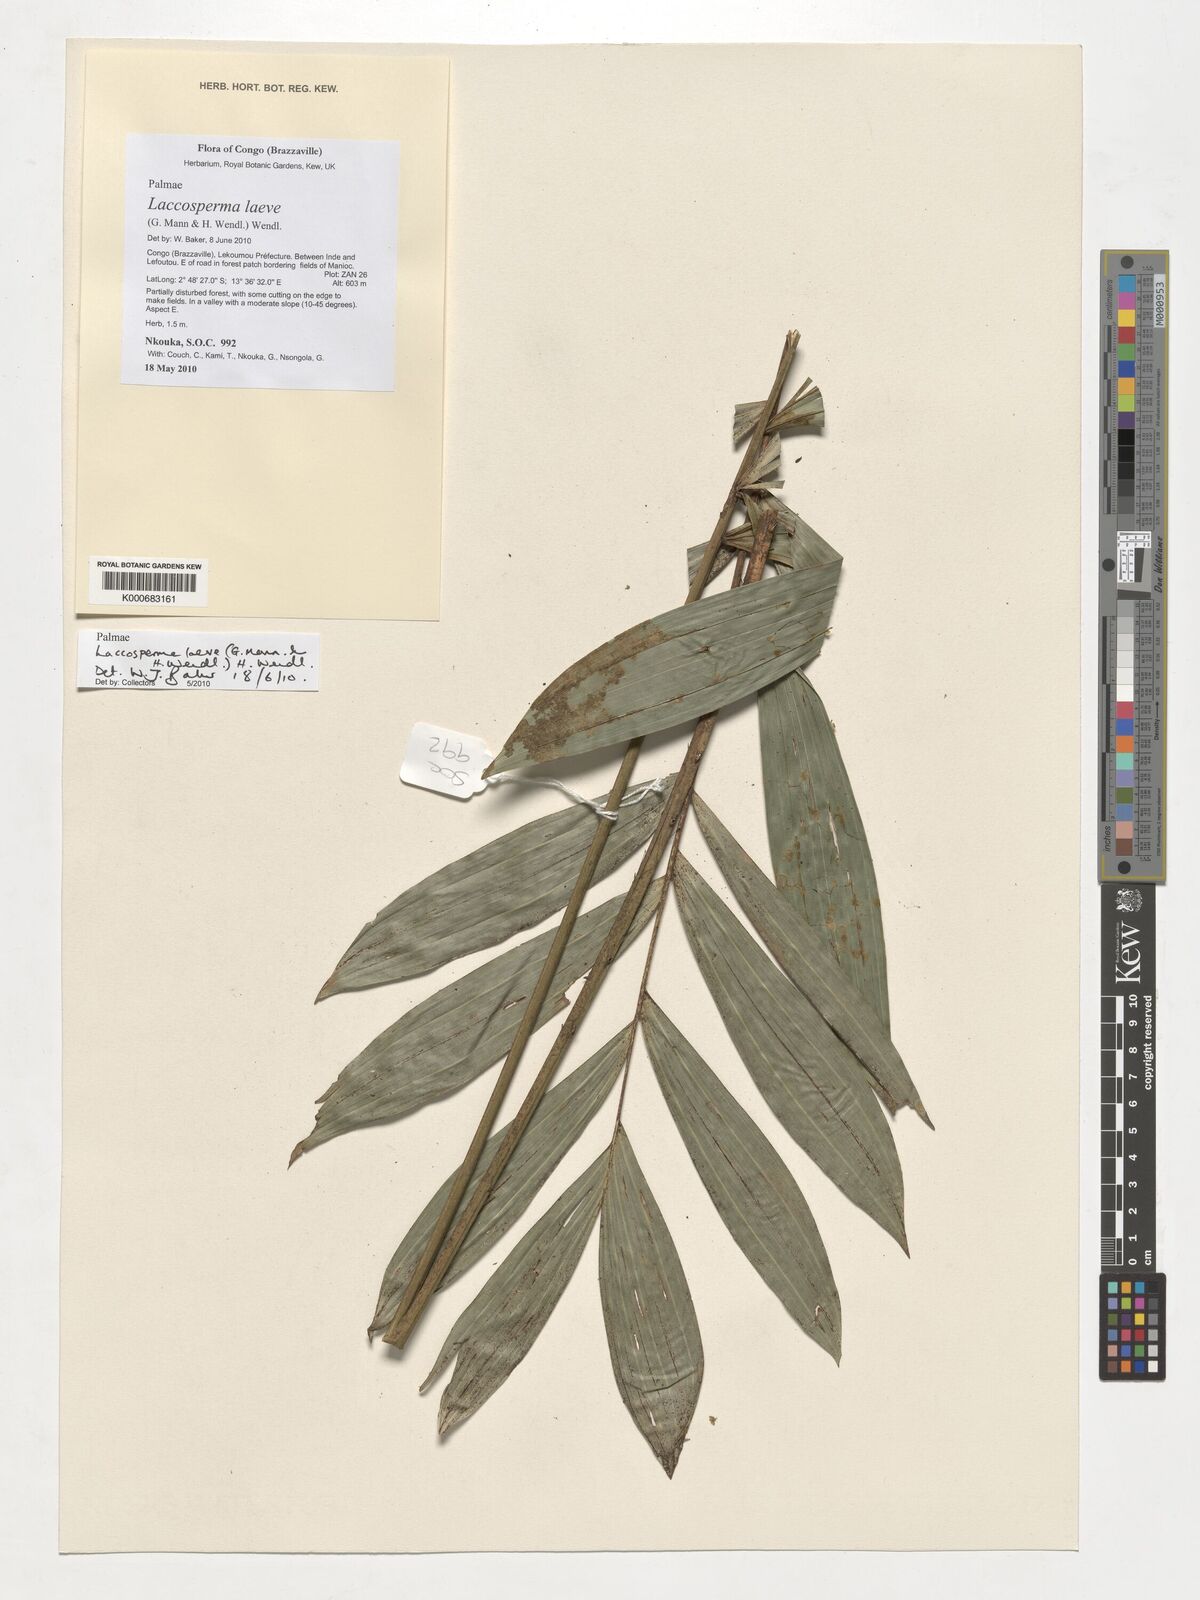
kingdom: Plantae
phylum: Tracheophyta
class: Liliopsida
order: Arecales
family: Arecaceae
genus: Laccosperma
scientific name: Laccosperma laeve
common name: Rattan
